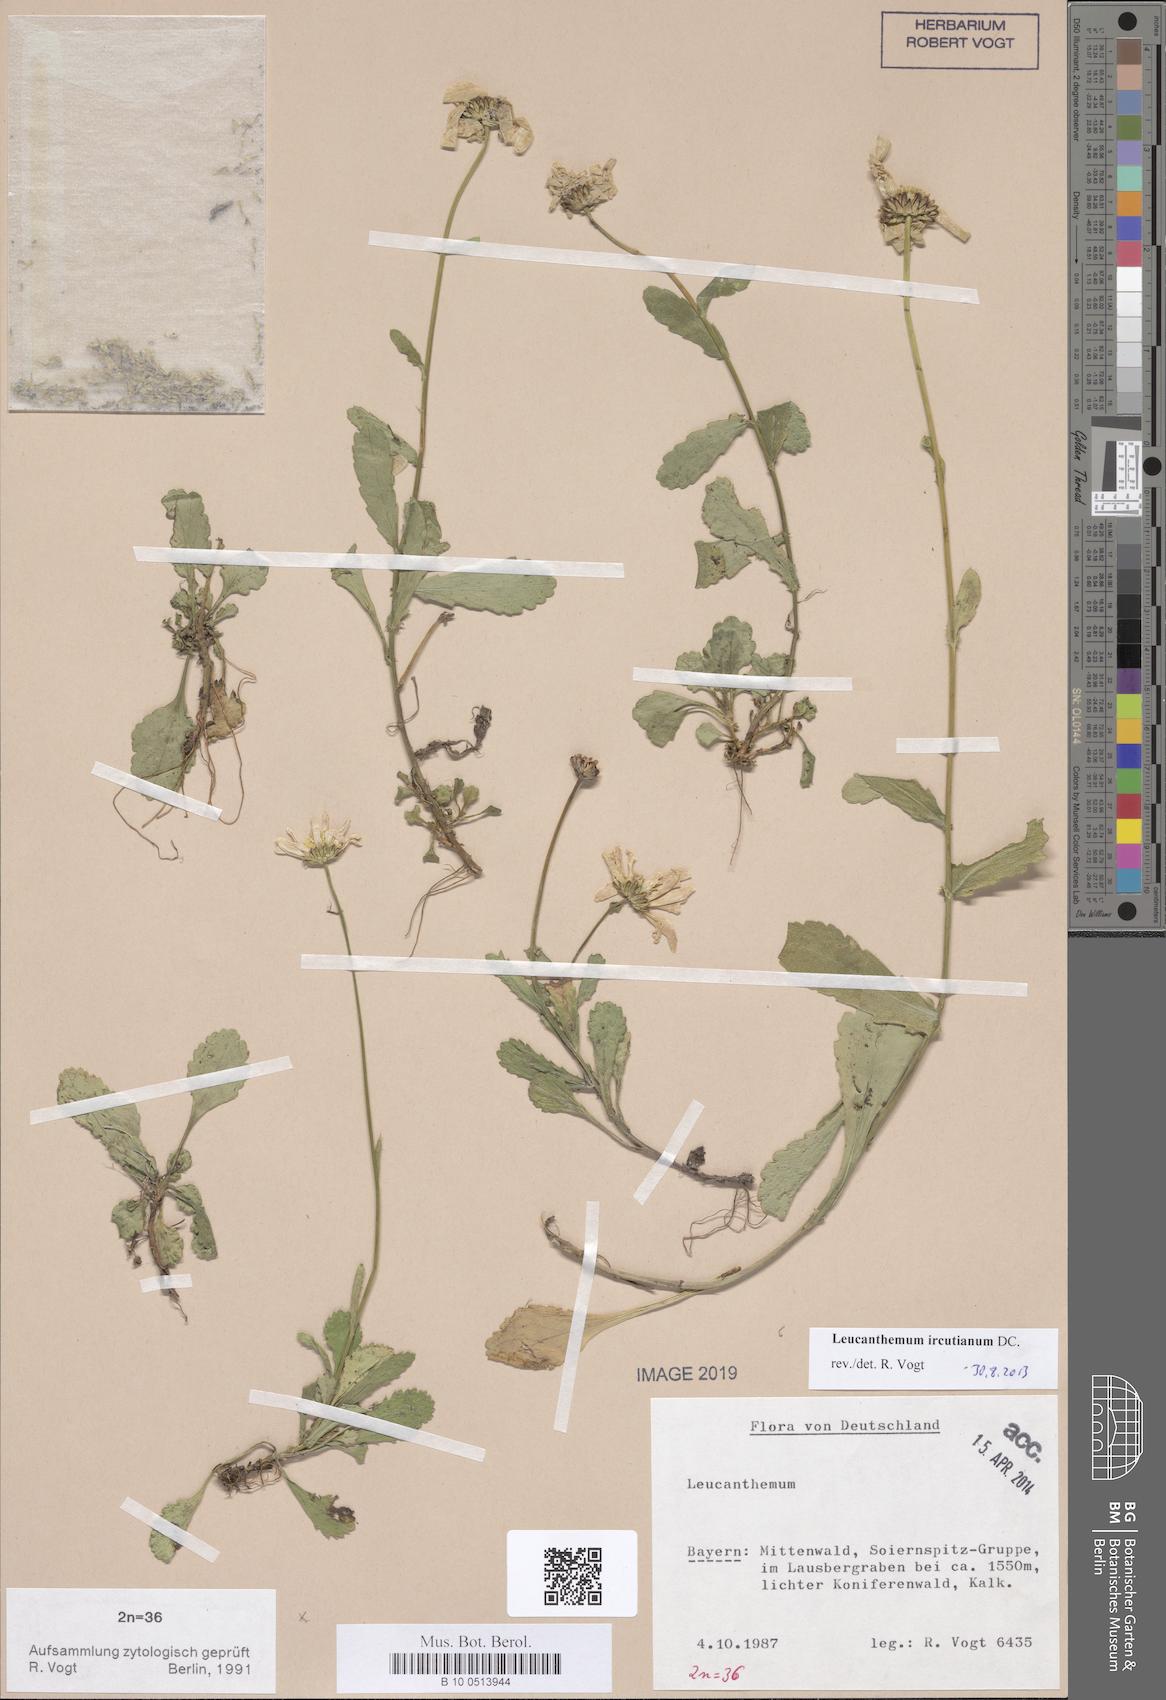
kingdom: Plantae
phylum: Tracheophyta
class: Magnoliopsida
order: Asterales
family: Asteraceae
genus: Leucanthemum
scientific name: Leucanthemum ircutianum
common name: Daisy
